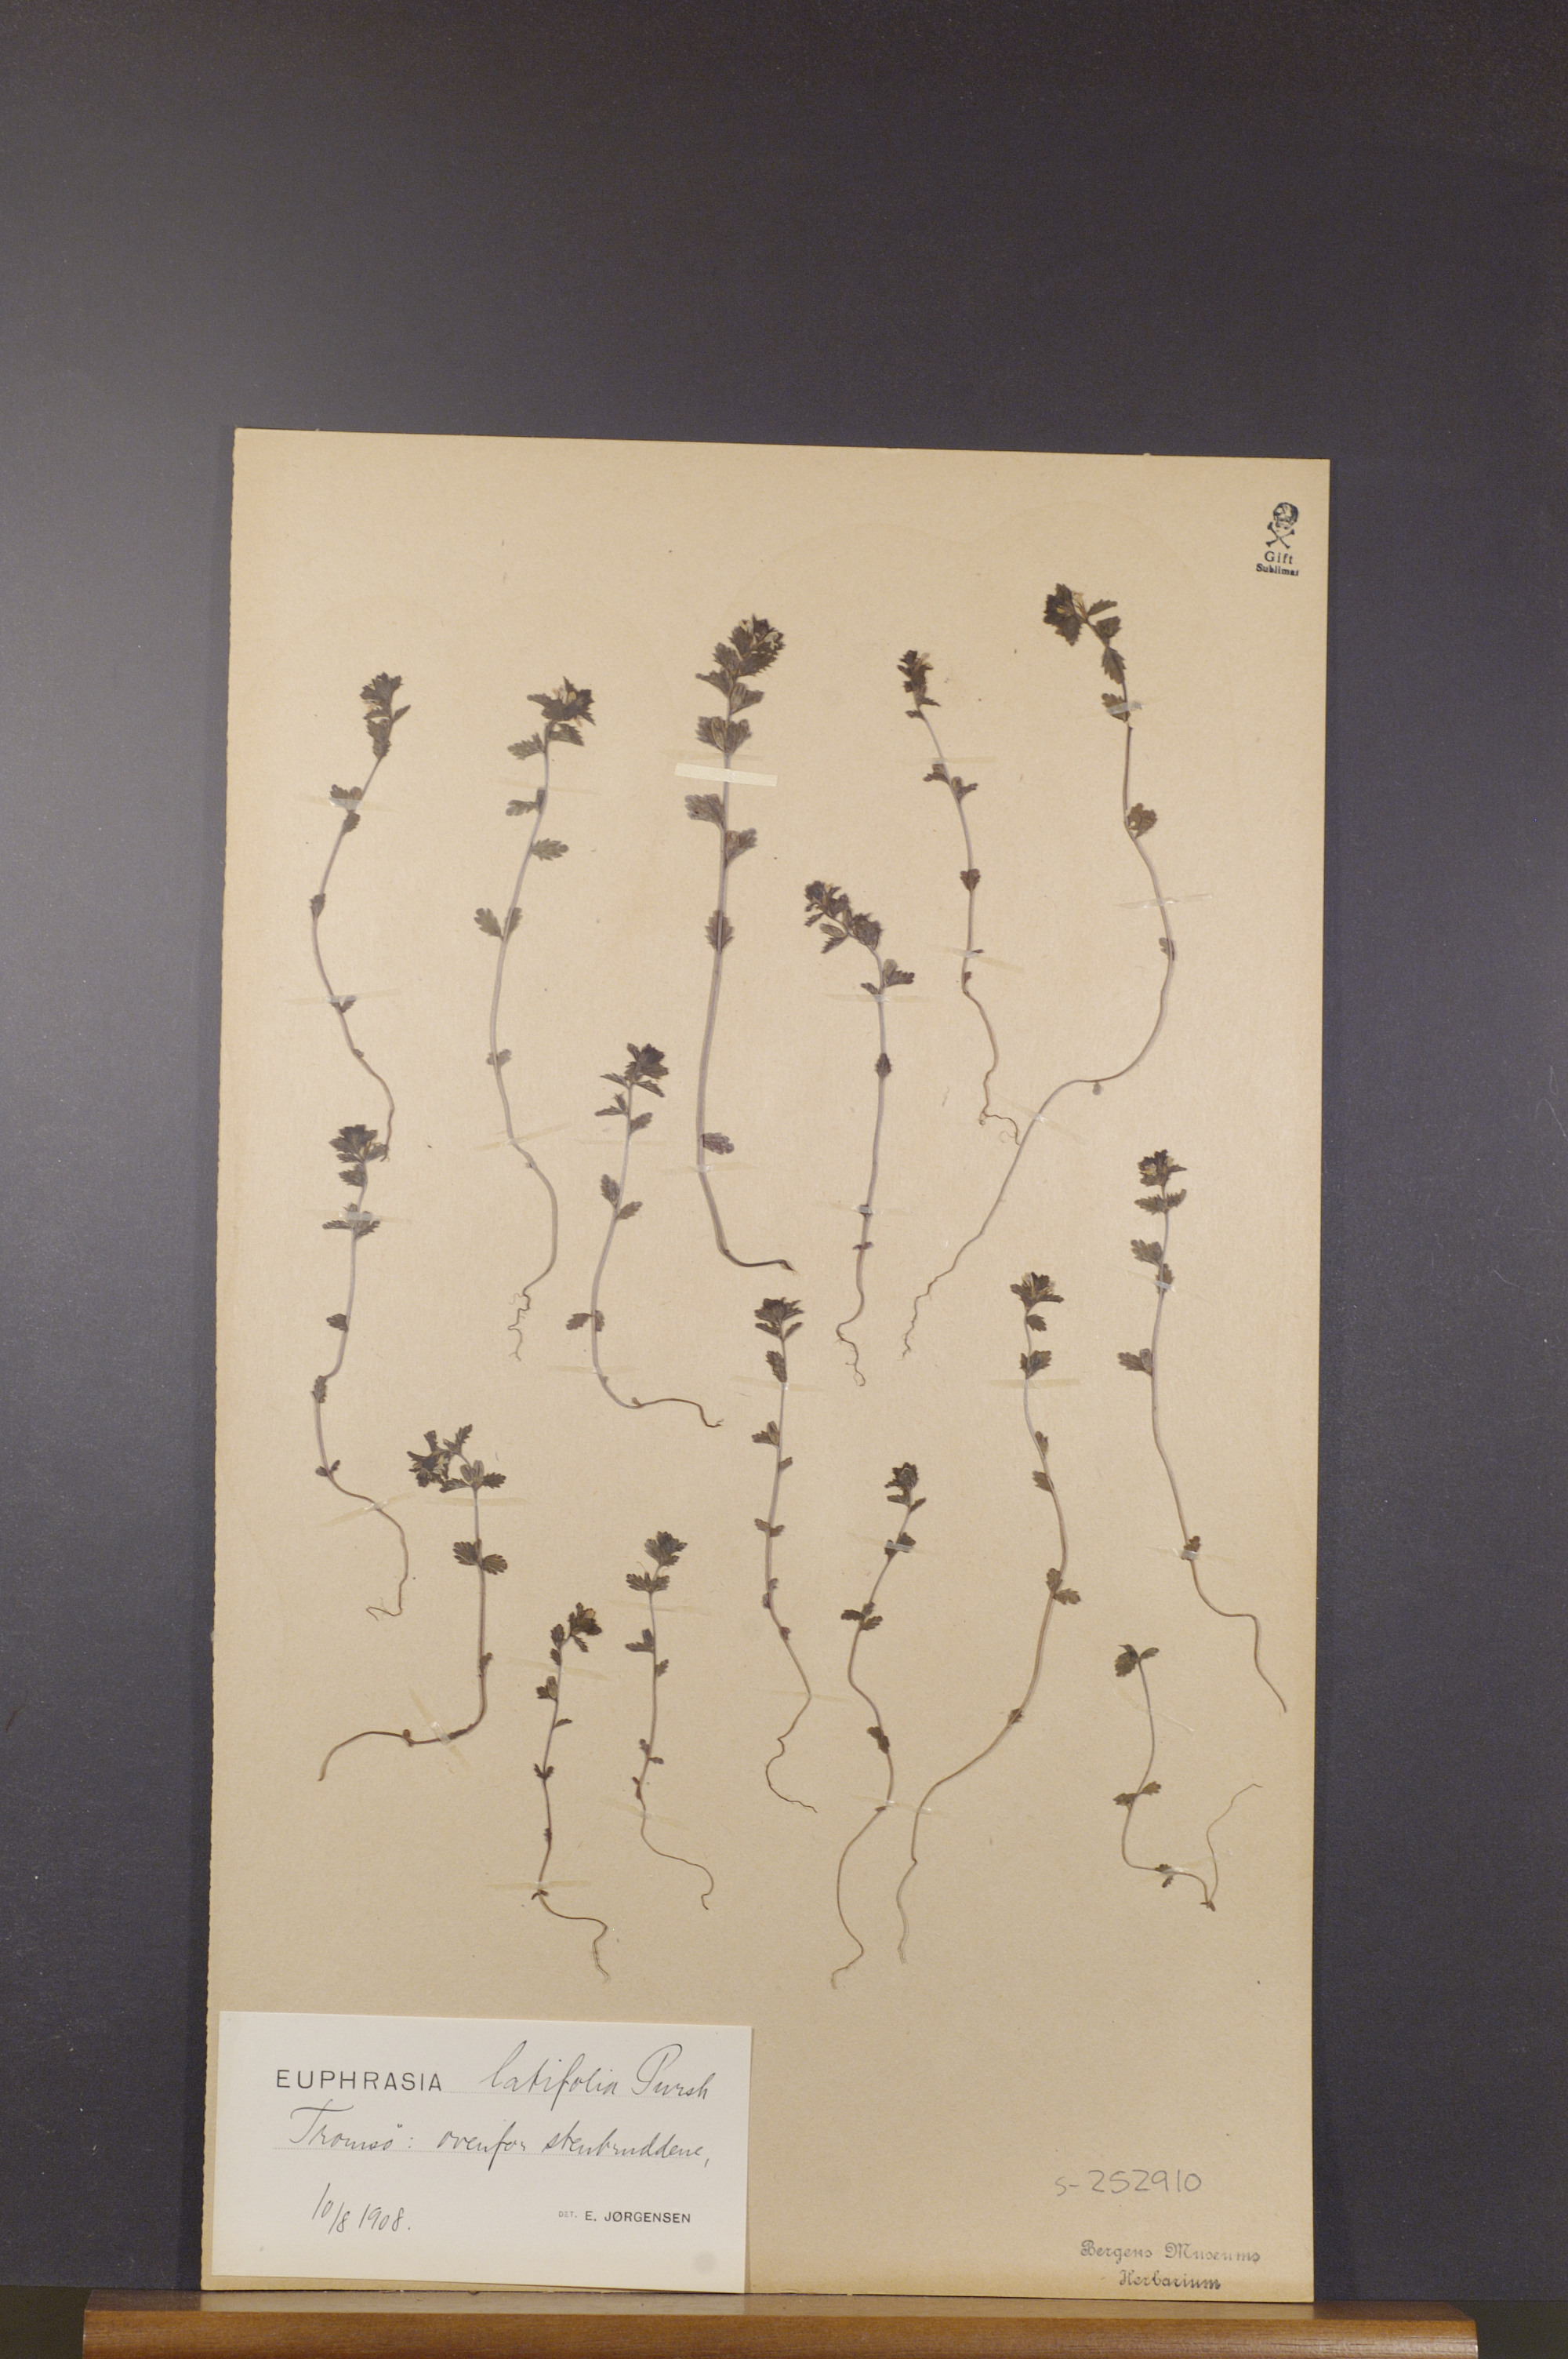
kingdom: Plantae
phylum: Tracheophyta
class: Magnoliopsida
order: Lamiales
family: Orobanchaceae
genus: Euphrasia
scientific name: Euphrasia wettsteinii
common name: Wettstein's eyebright
